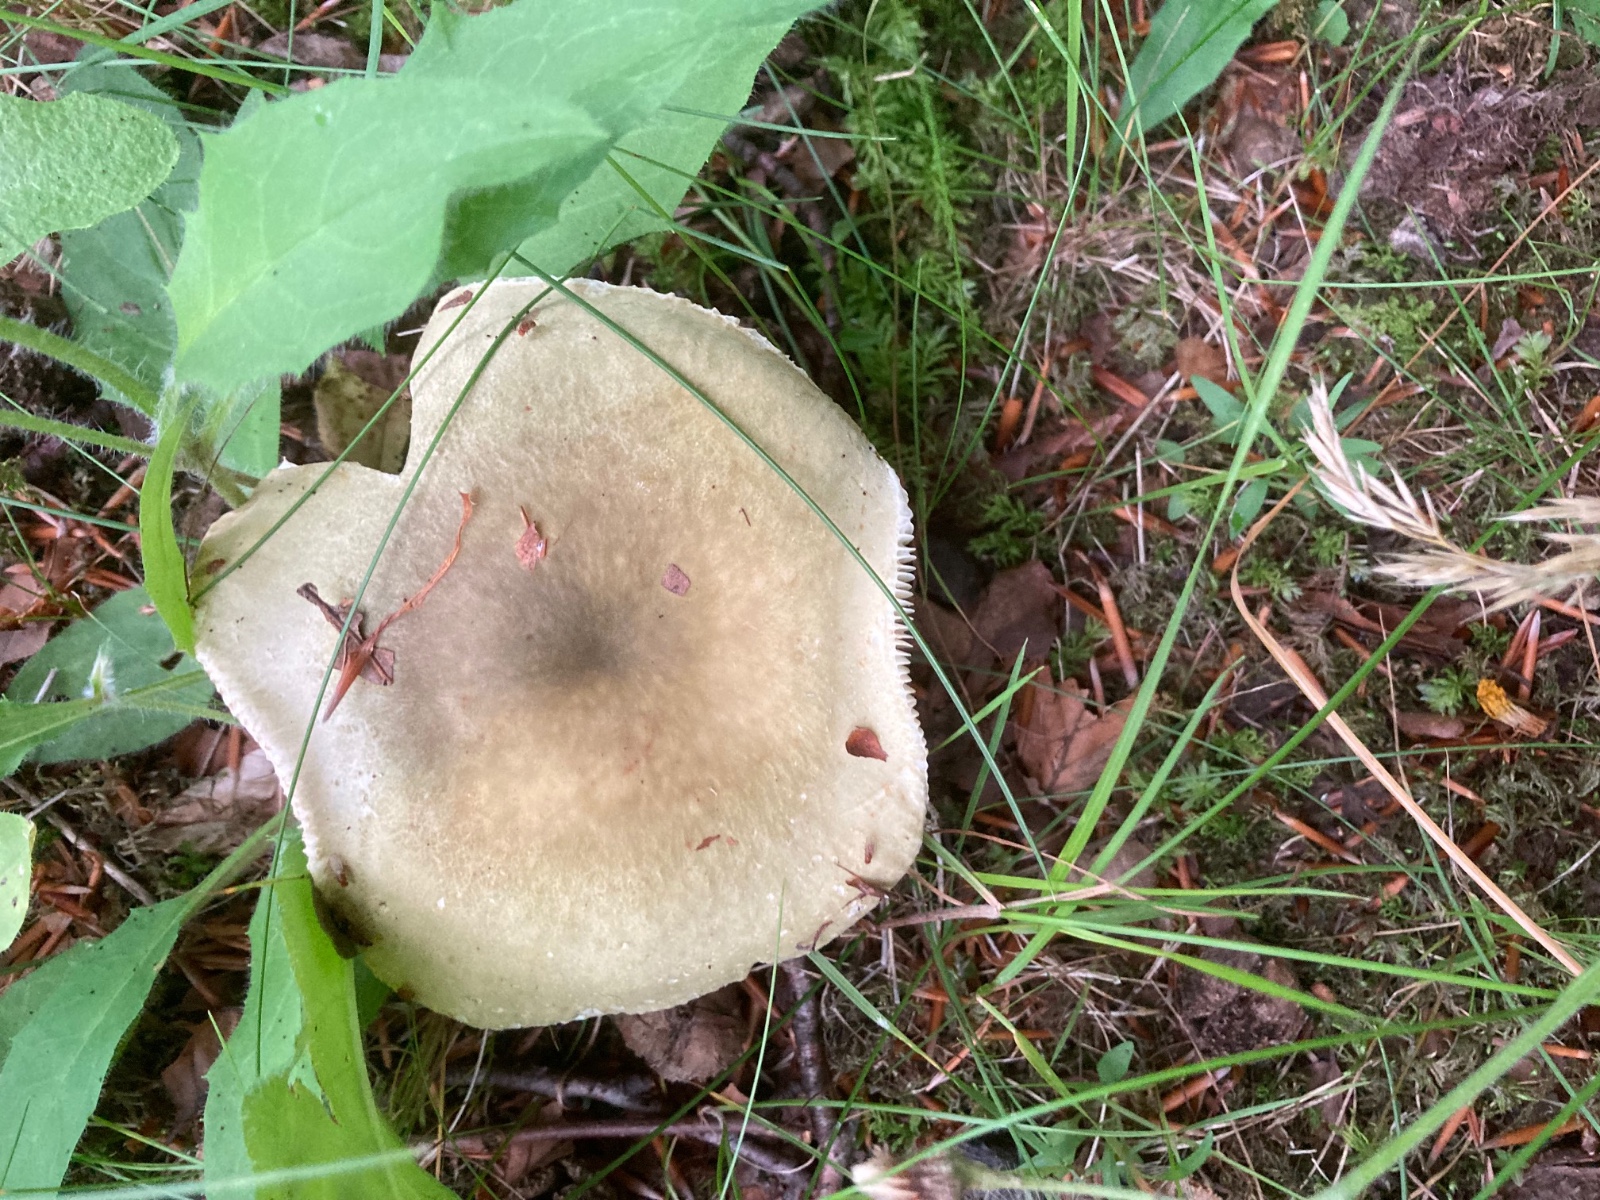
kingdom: Fungi
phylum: Basidiomycota
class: Agaricomycetes
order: Russulales
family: Russulaceae
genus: Russula
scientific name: Russula heterophylla
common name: gaffelbladet skørhat
